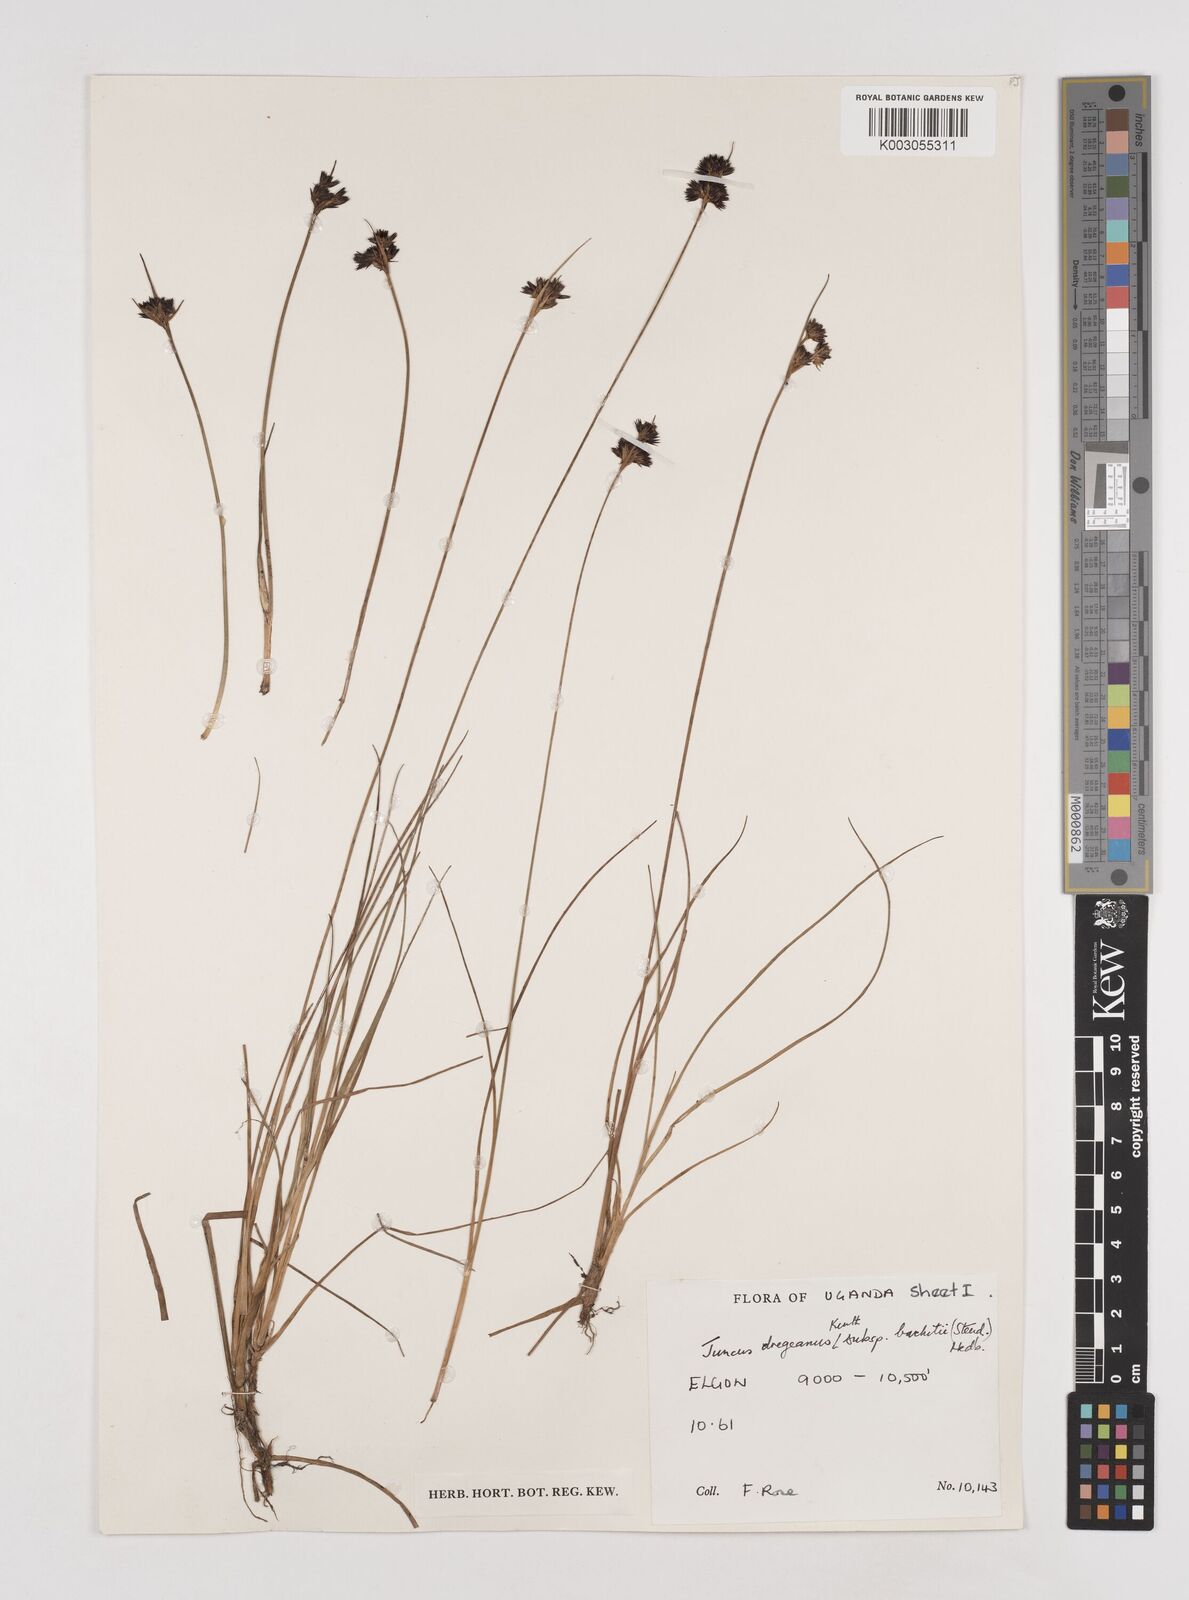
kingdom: Plantae
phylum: Tracheophyta
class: Liliopsida
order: Poales
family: Juncaceae
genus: Juncus
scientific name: Juncus dregeanus
